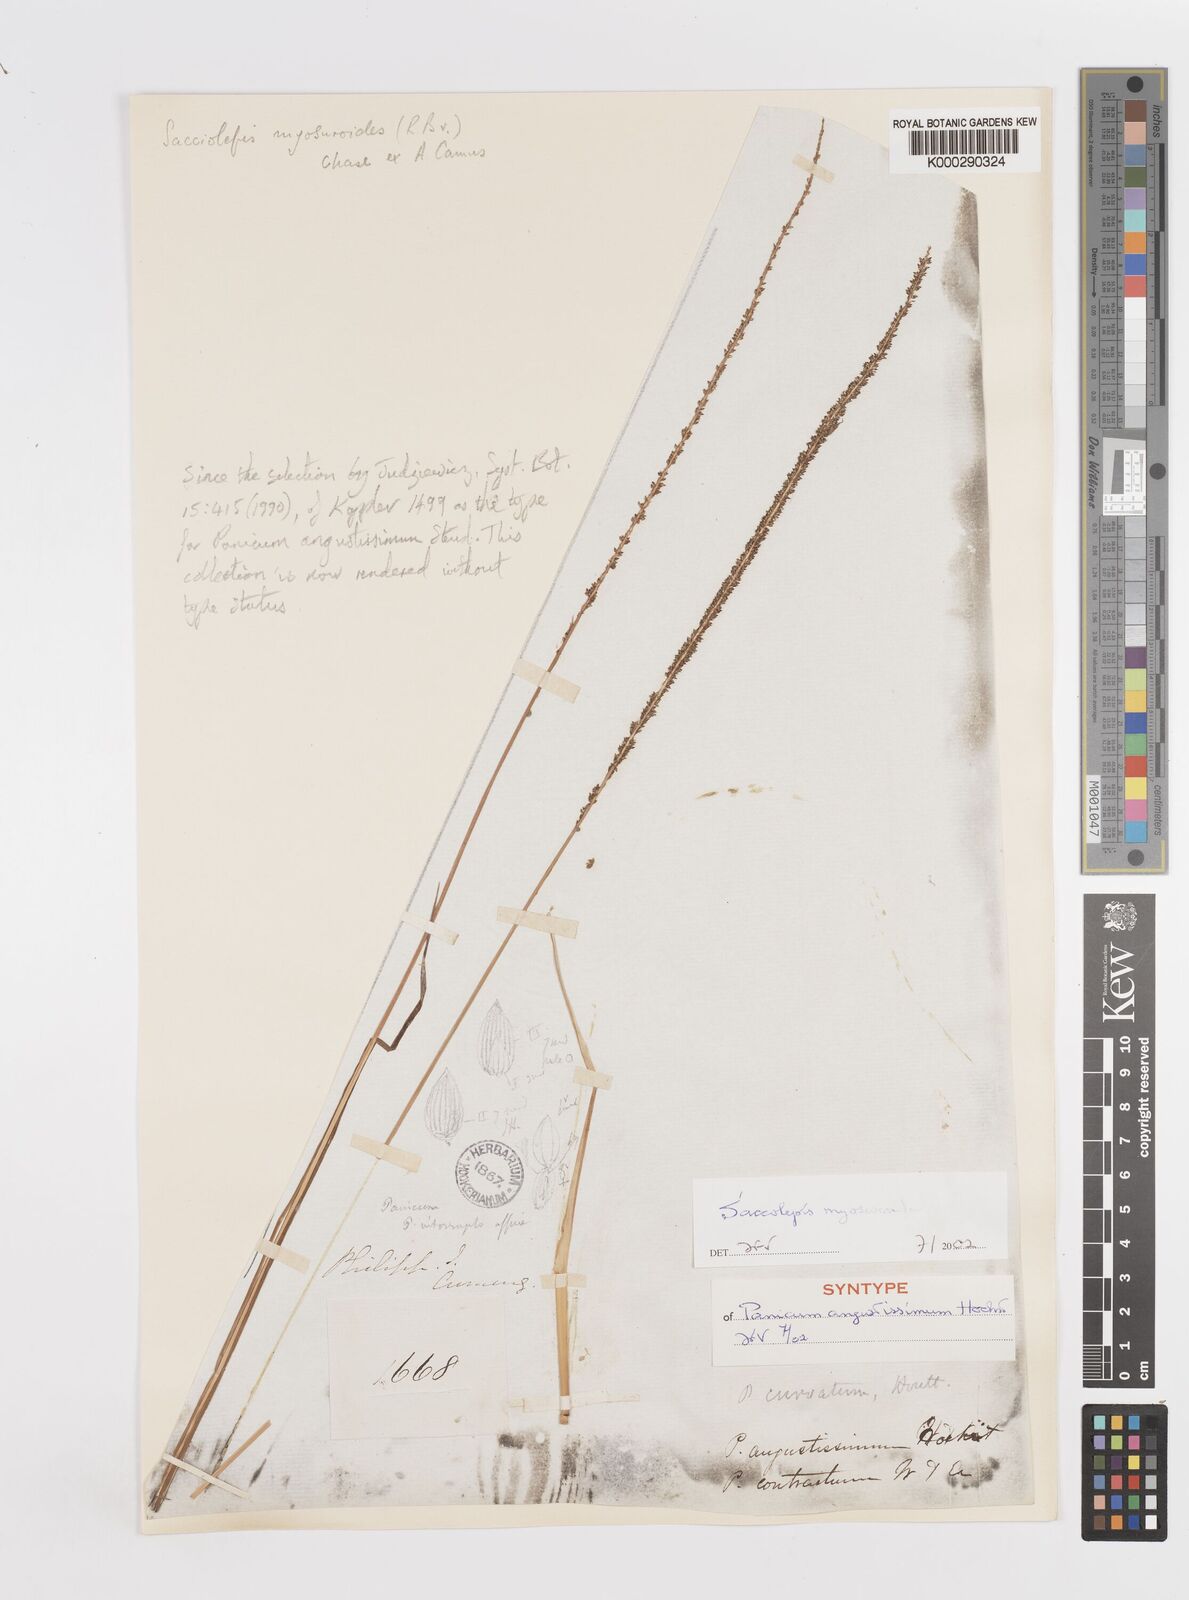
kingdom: Plantae
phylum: Tracheophyta
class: Liliopsida
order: Poales
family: Poaceae
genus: Sacciolepis
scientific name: Sacciolepis myosuroides
